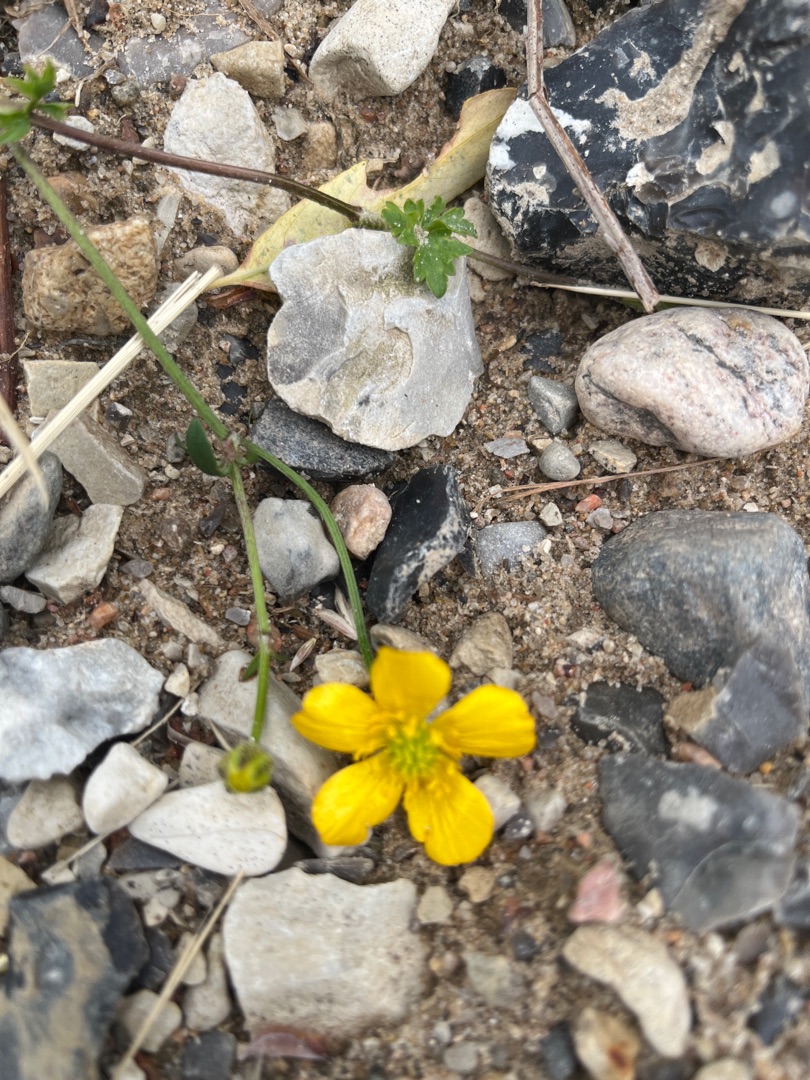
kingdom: Plantae
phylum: Tracheophyta
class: Magnoliopsida
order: Ranunculales
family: Ranunculaceae
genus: Ranunculus
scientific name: Ranunculus repens
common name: Lav ranunkel
